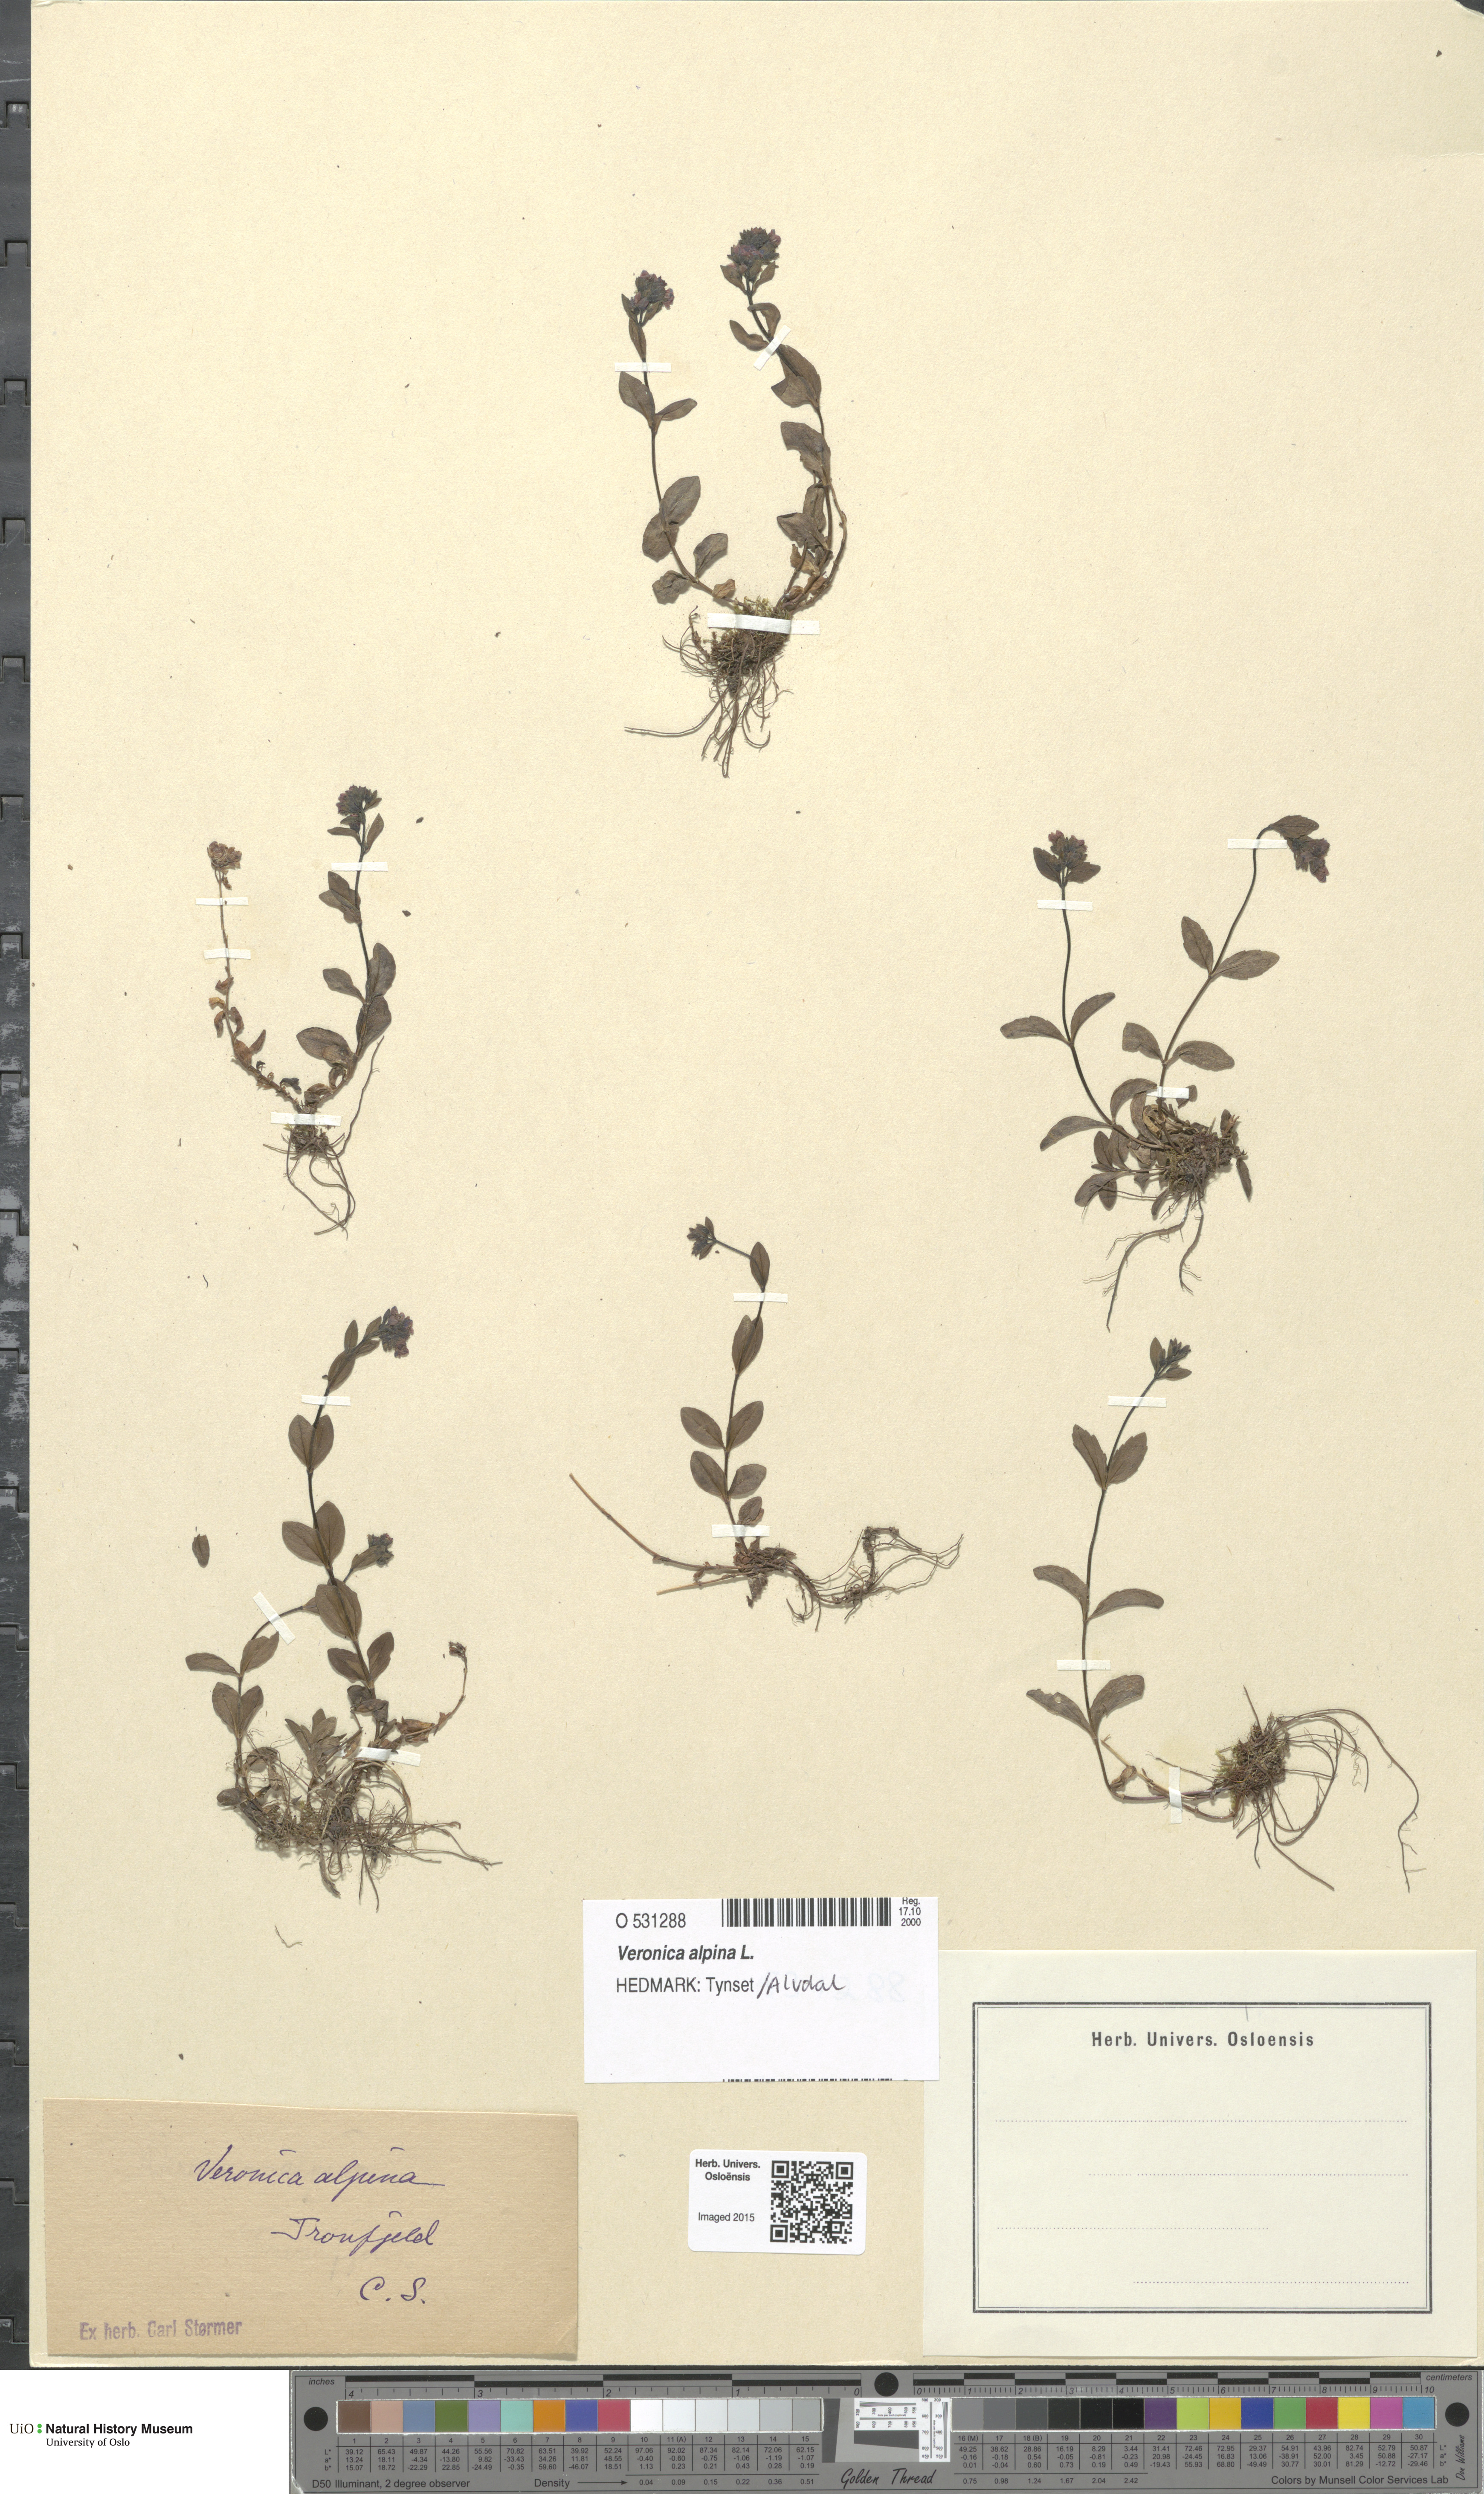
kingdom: Plantae
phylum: Tracheophyta
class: Magnoliopsida
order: Lamiales
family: Plantaginaceae
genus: Veronica
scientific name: Veronica alpina
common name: Alpine speedwell
